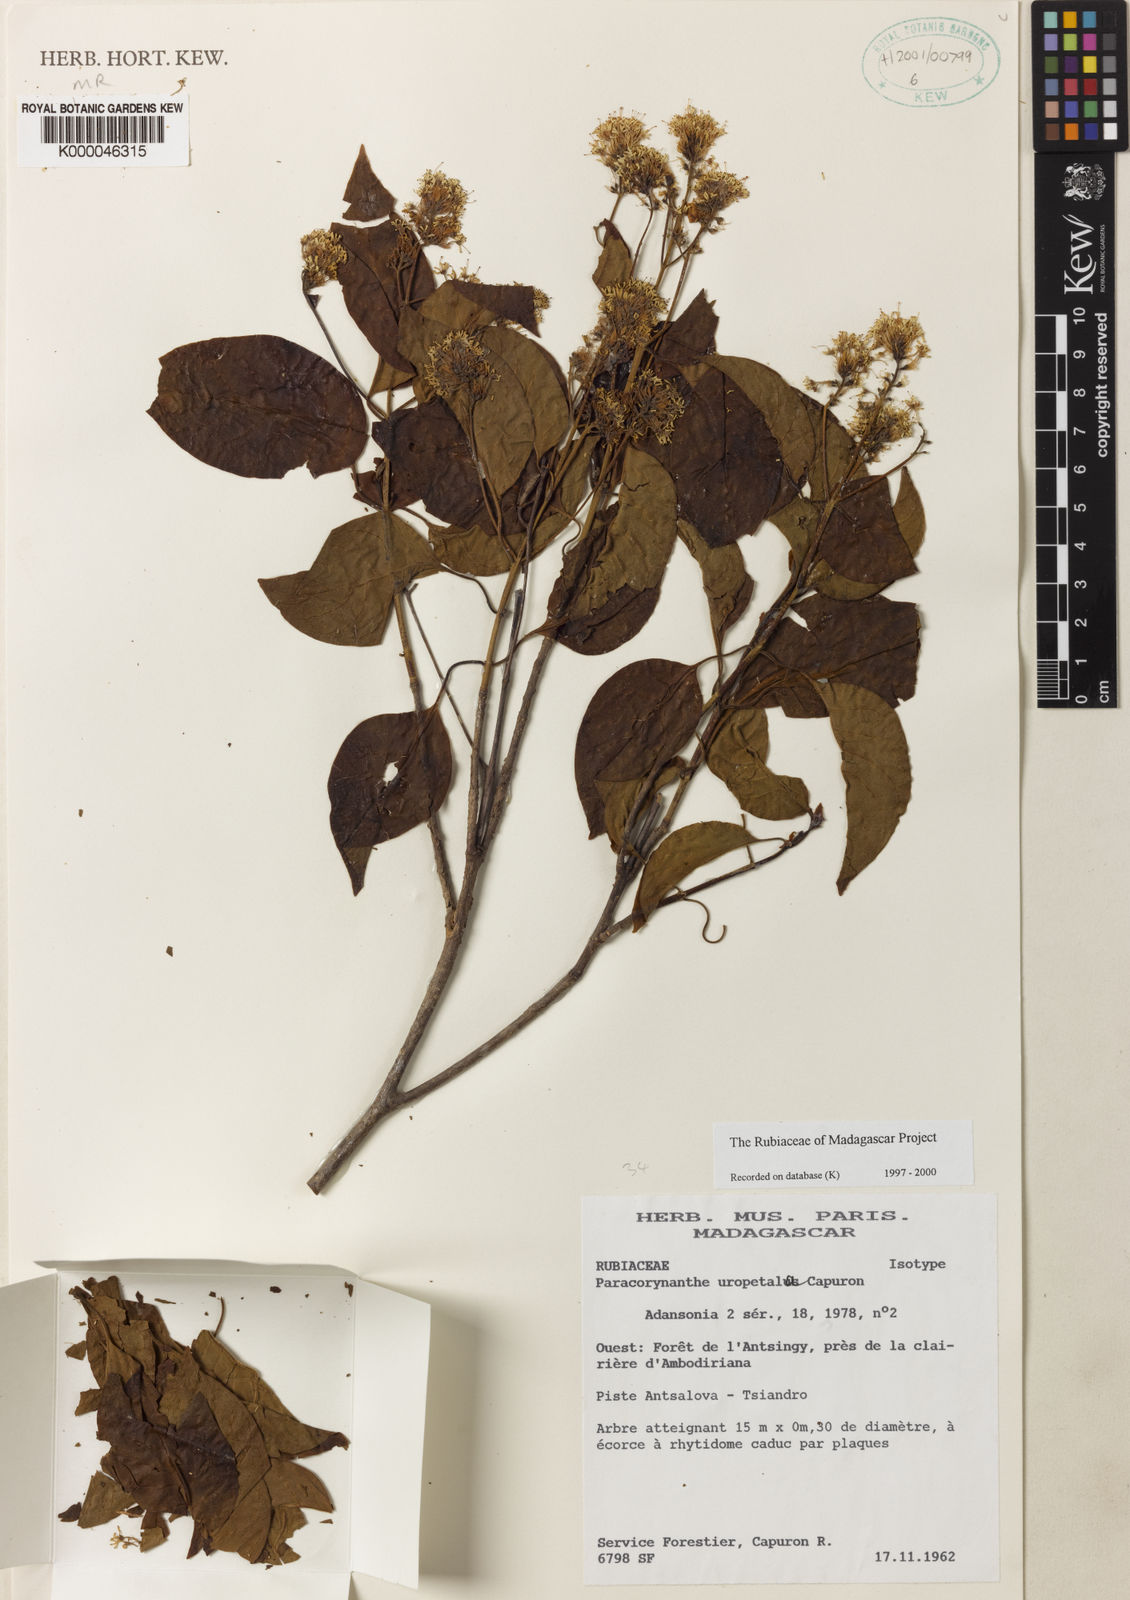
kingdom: Plantae
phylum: Tracheophyta
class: Magnoliopsida
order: Gentianales
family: Rubiaceae
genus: Paracorynanthe
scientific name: Paracorynanthe uropetala
